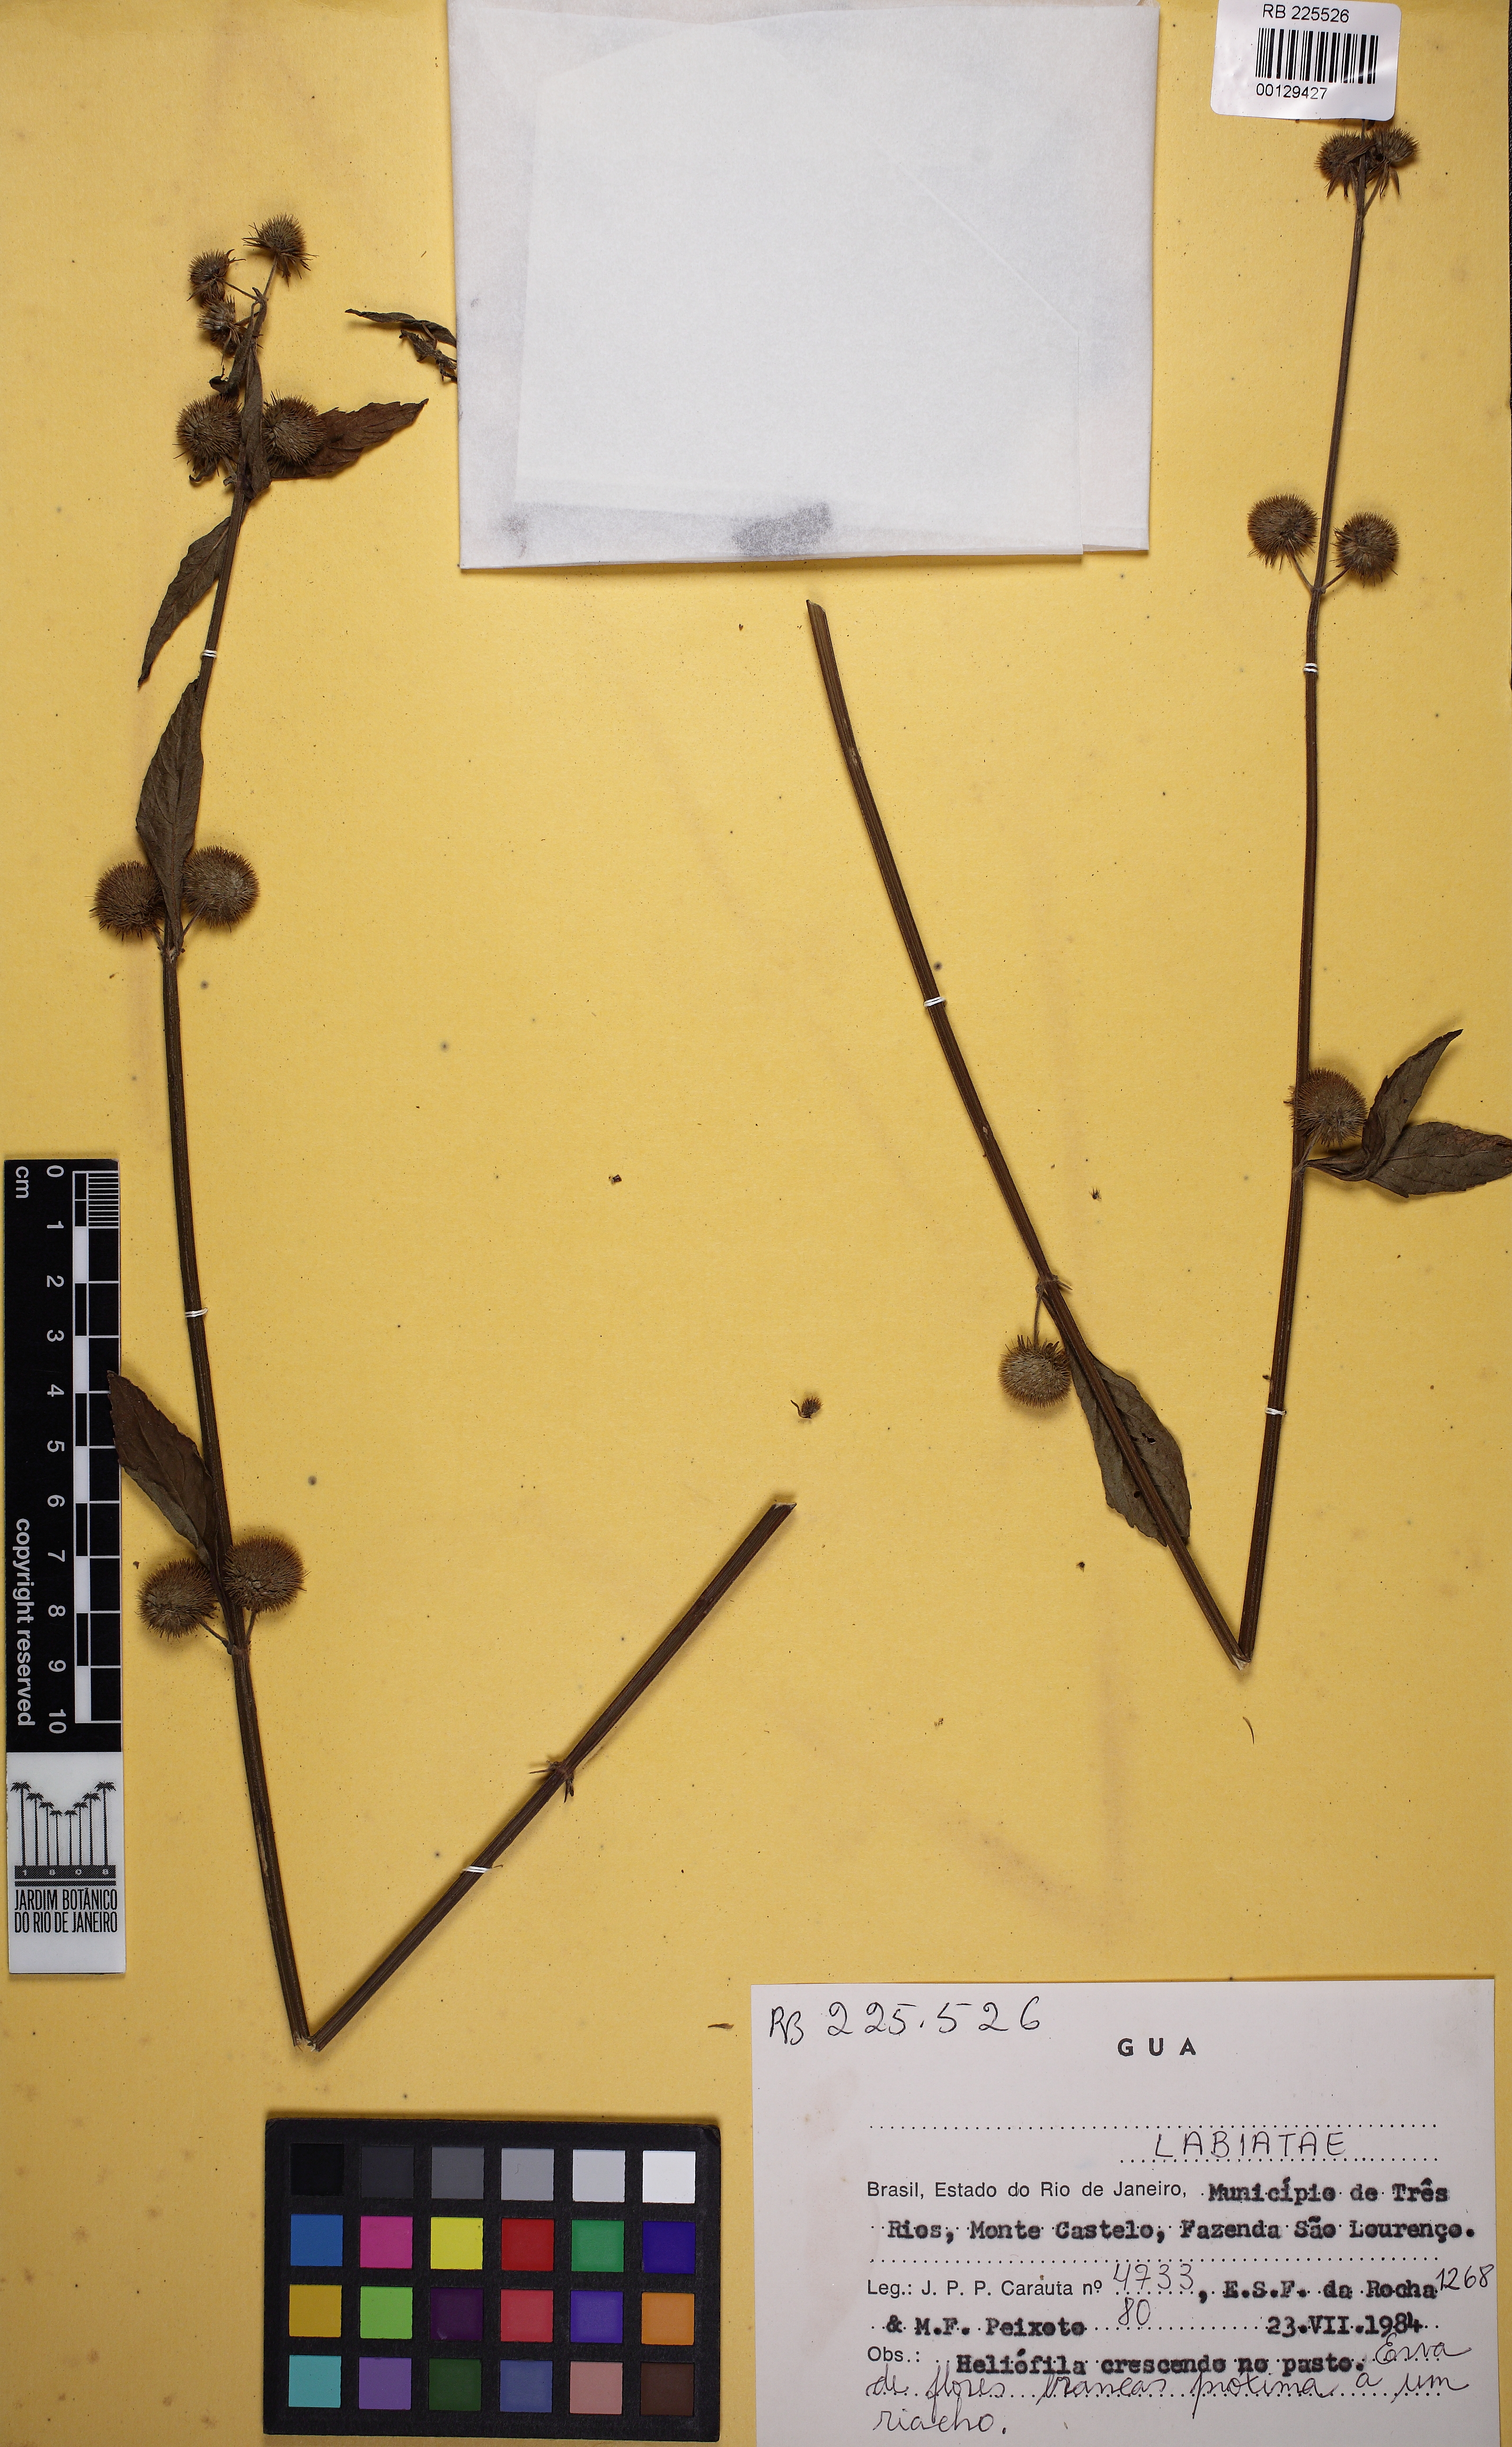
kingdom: Plantae
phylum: Tracheophyta
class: Magnoliopsida
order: Lamiales
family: Lamiaceae
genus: Hyptis
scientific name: Hyptis
